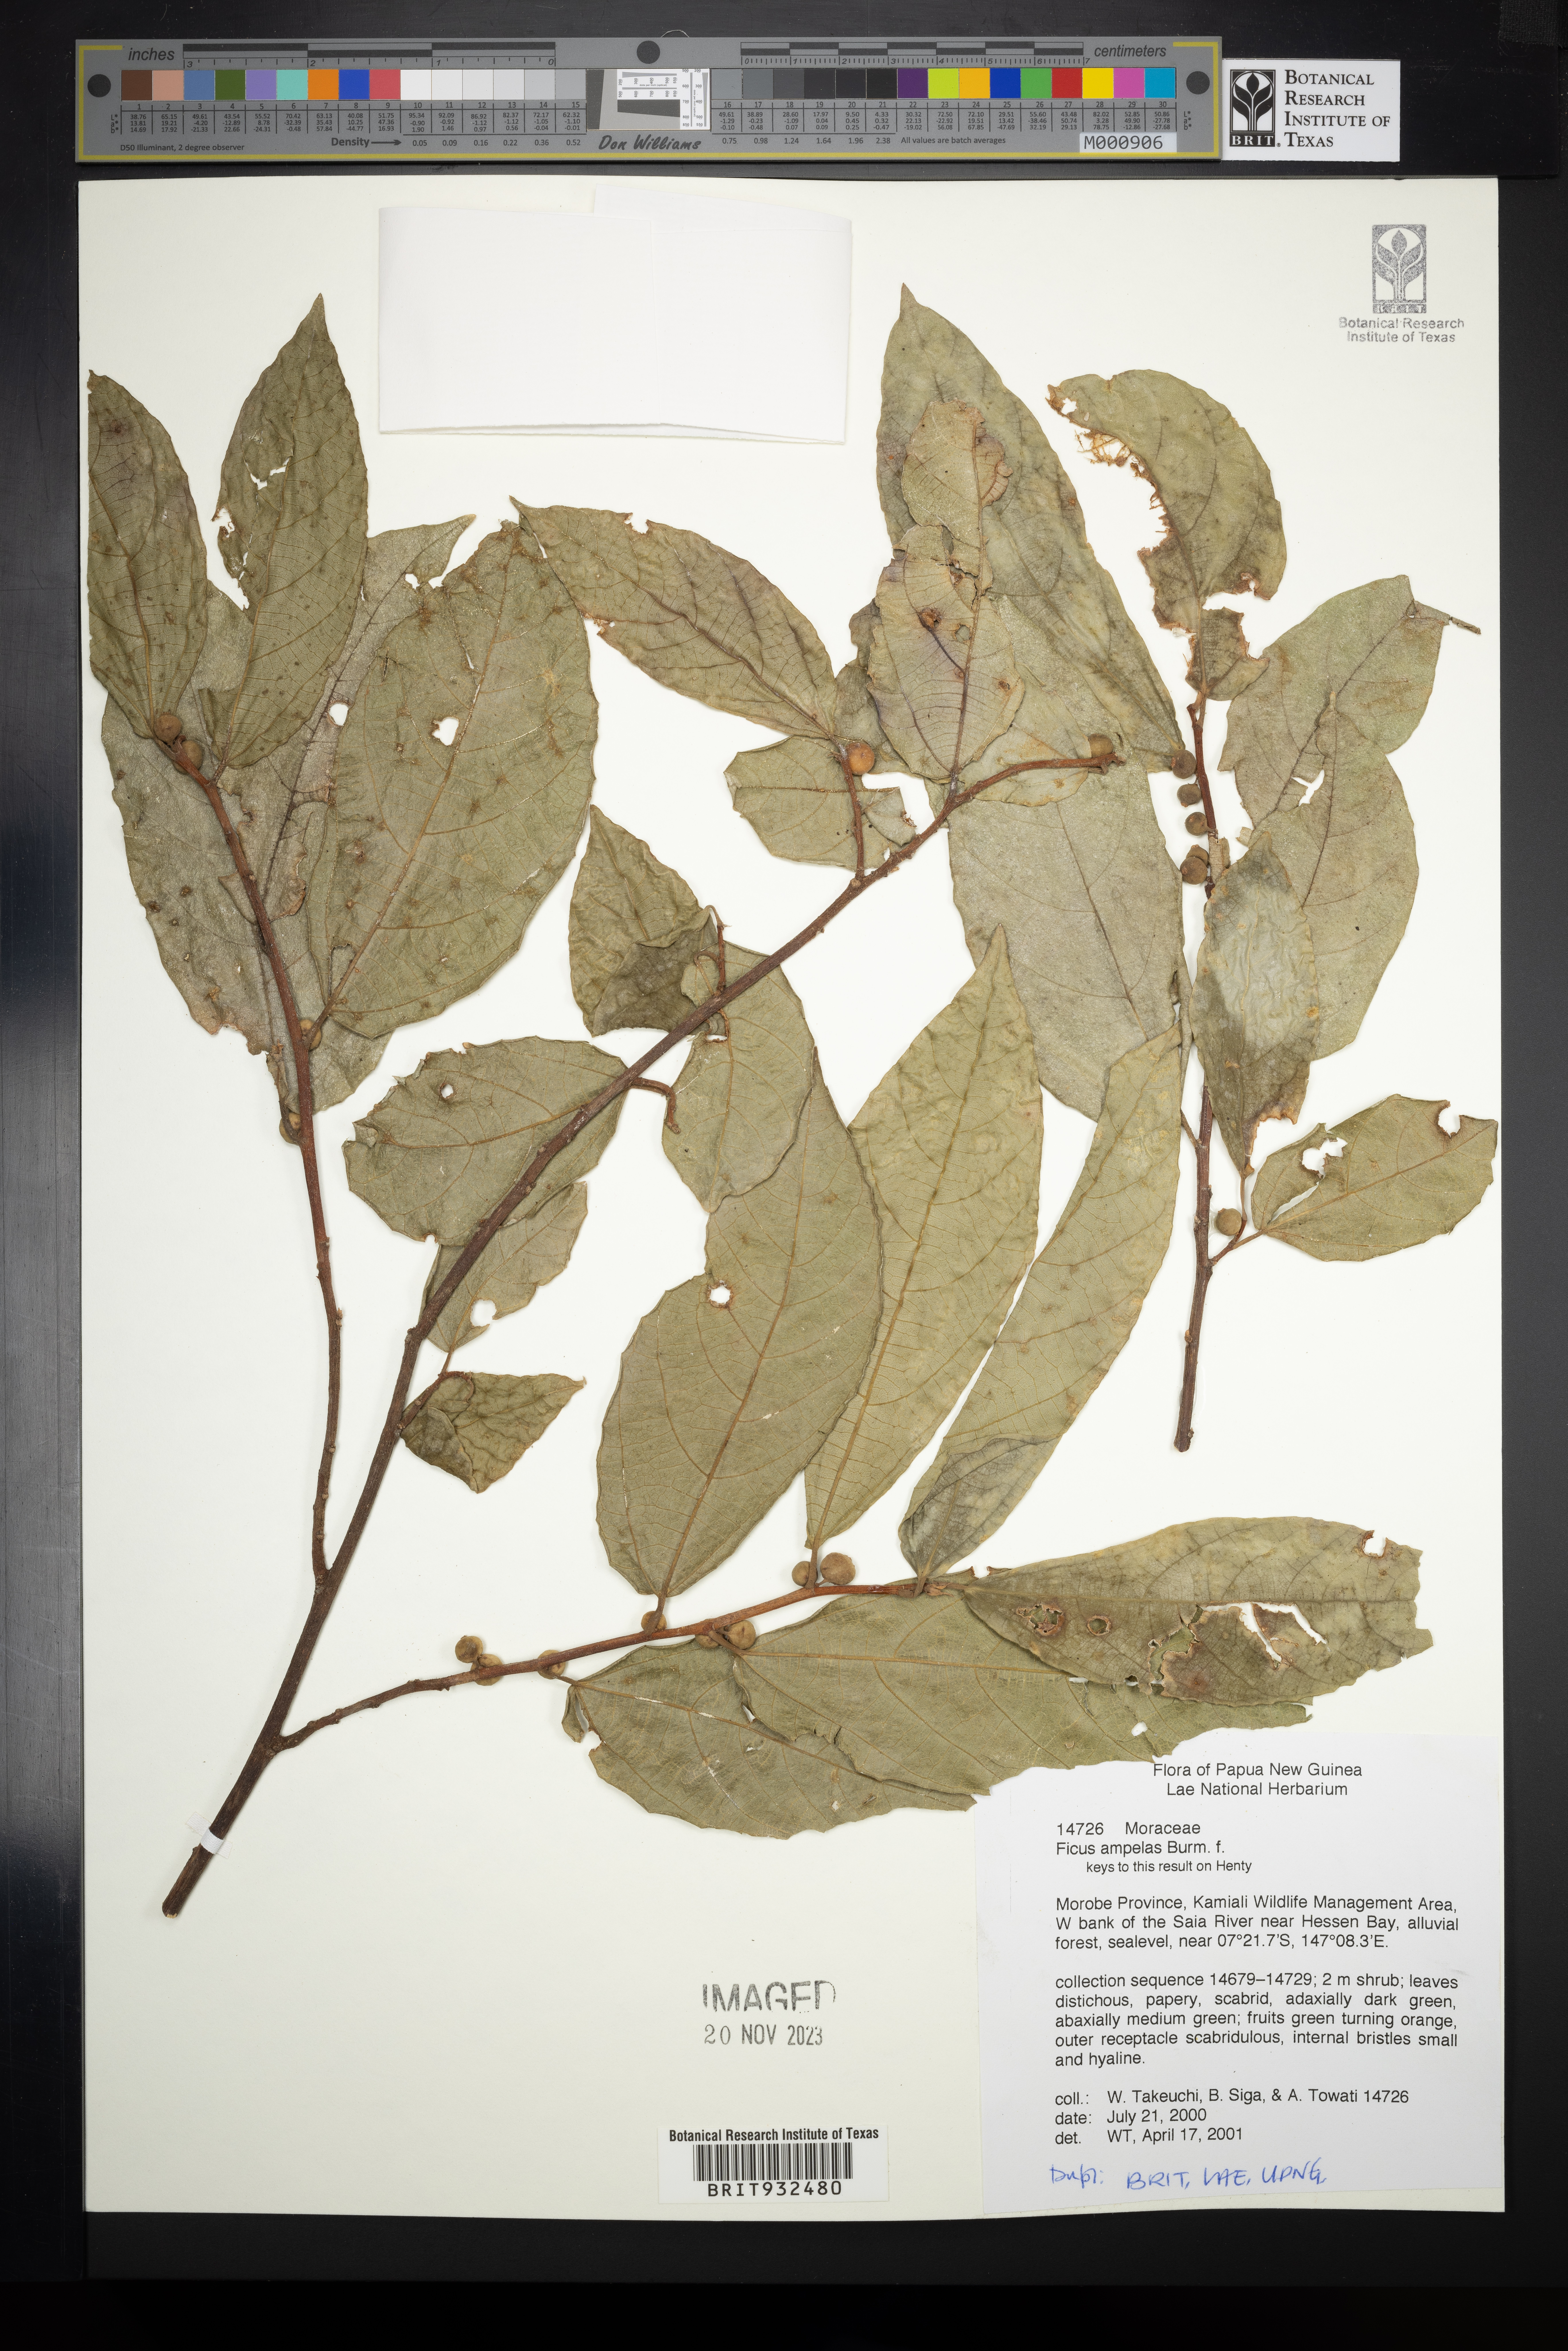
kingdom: Plantae
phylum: Tracheophyta
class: Magnoliopsida
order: Rosales
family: Moraceae
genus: Ficus
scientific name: Ficus ampelos
